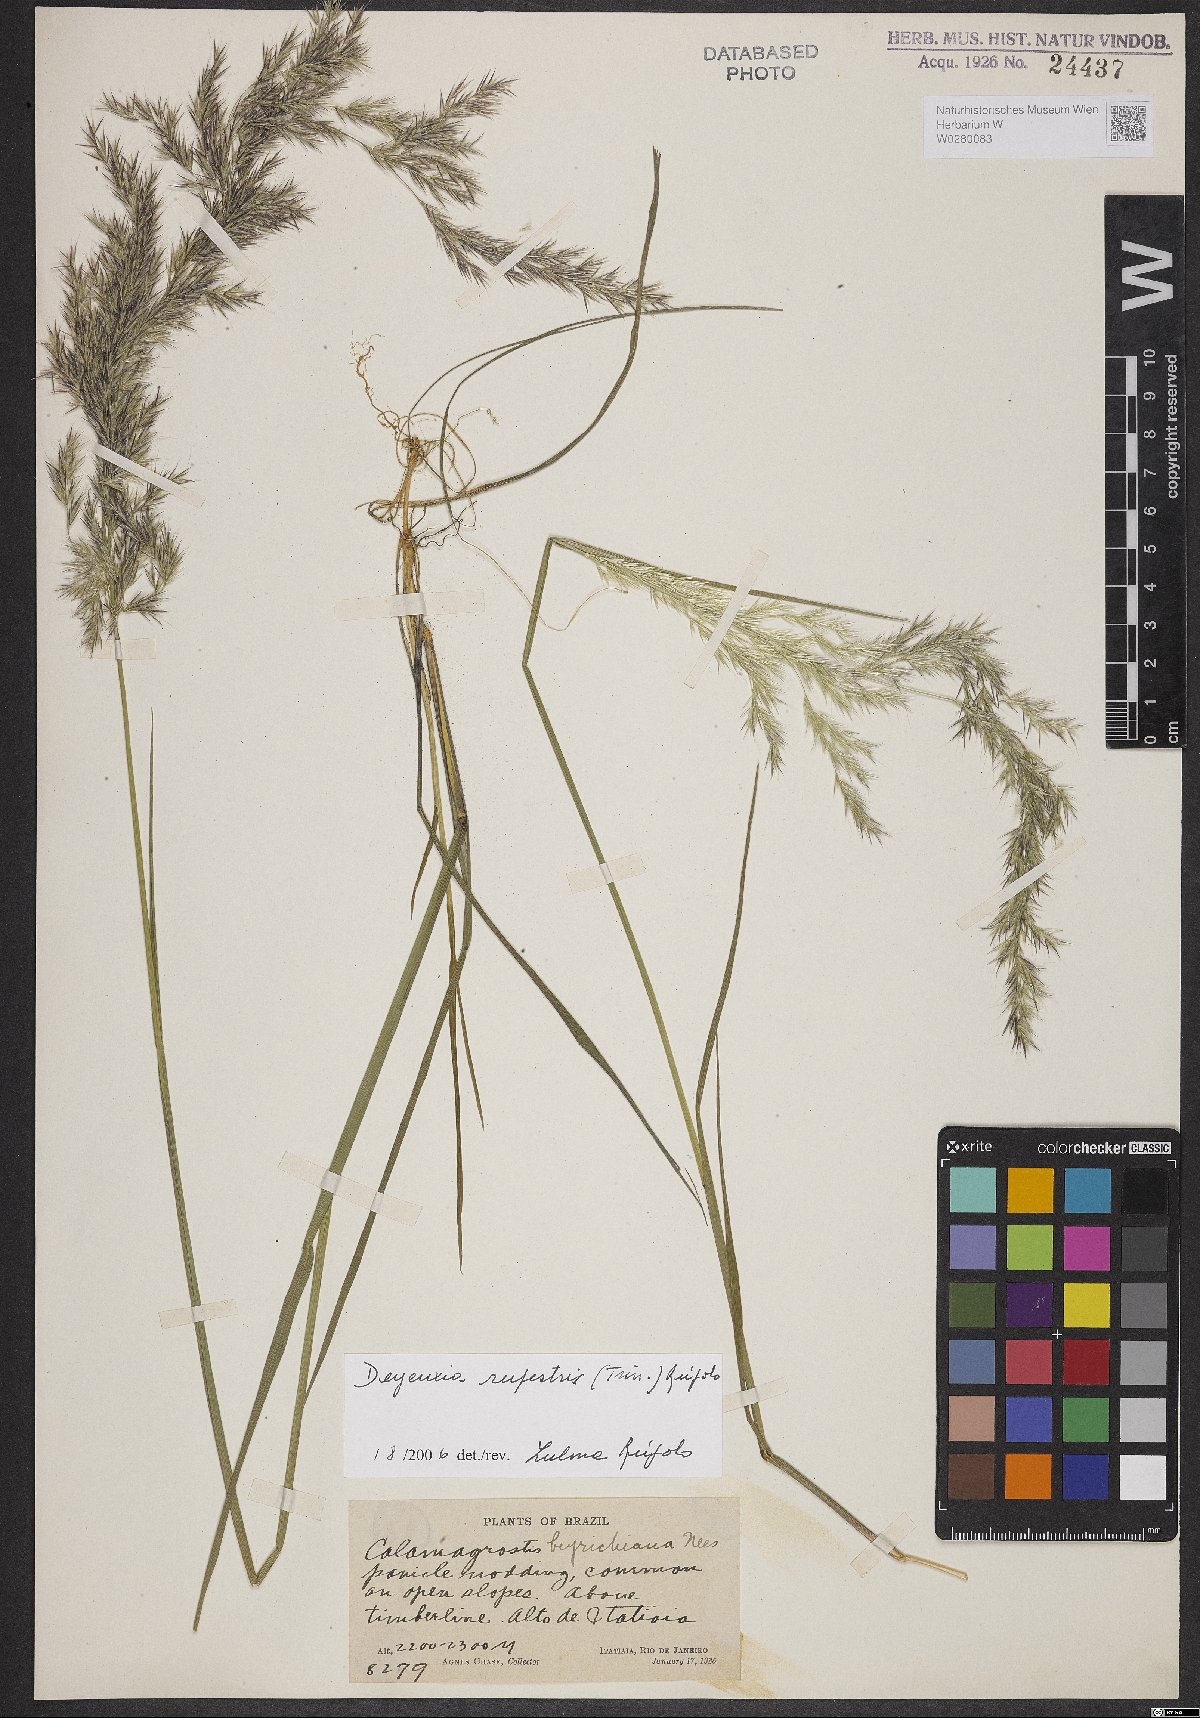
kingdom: Plantae
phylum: Tracheophyta
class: Liliopsida
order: Poales
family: Poaceae
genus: Cinnagrostis
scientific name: Cinnagrostis rupestris
